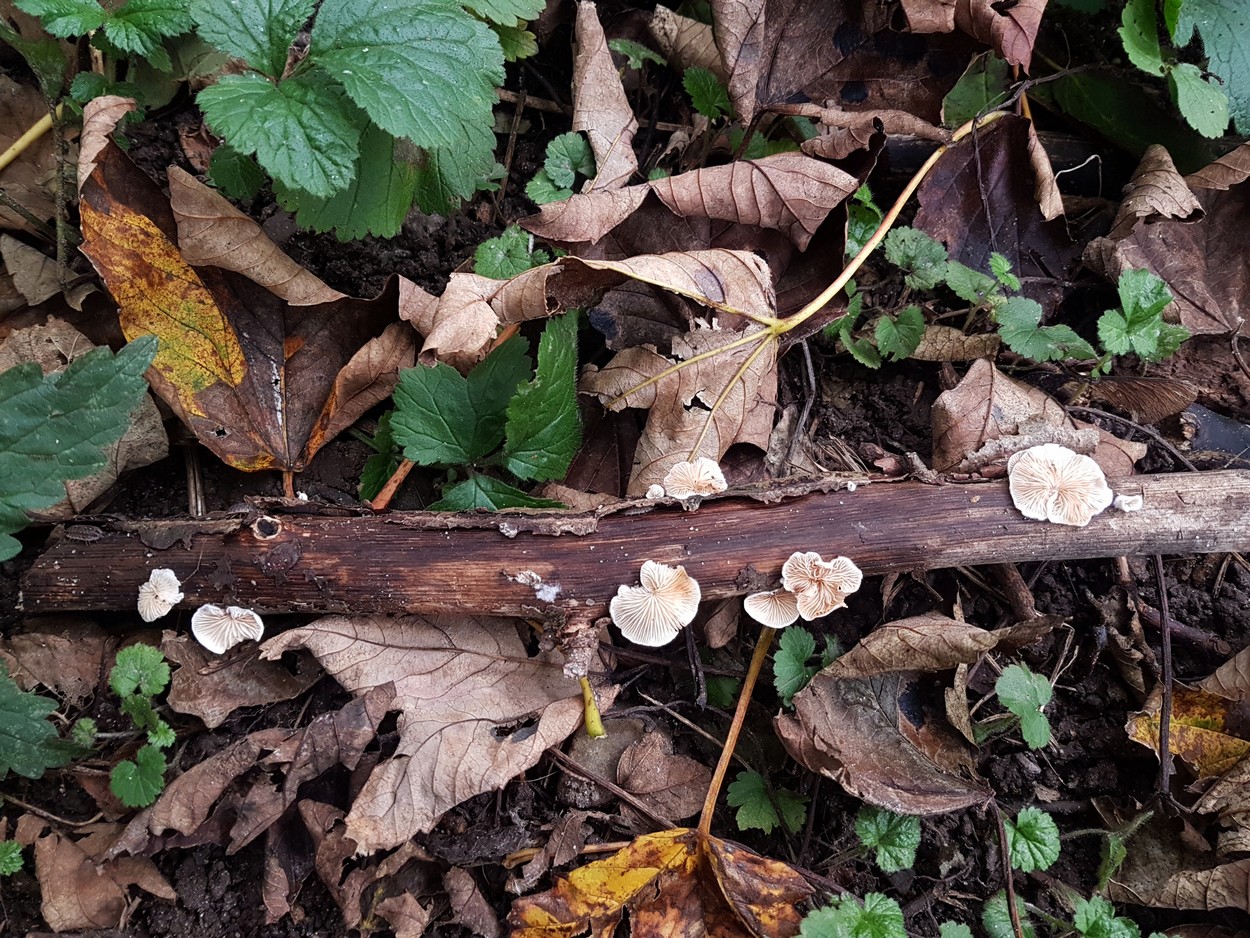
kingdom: Fungi
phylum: Basidiomycota
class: Agaricomycetes
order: Agaricales
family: Crepidotaceae
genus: Crepidotus
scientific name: Crepidotus cesatii
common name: almindelig muslingesvamp
